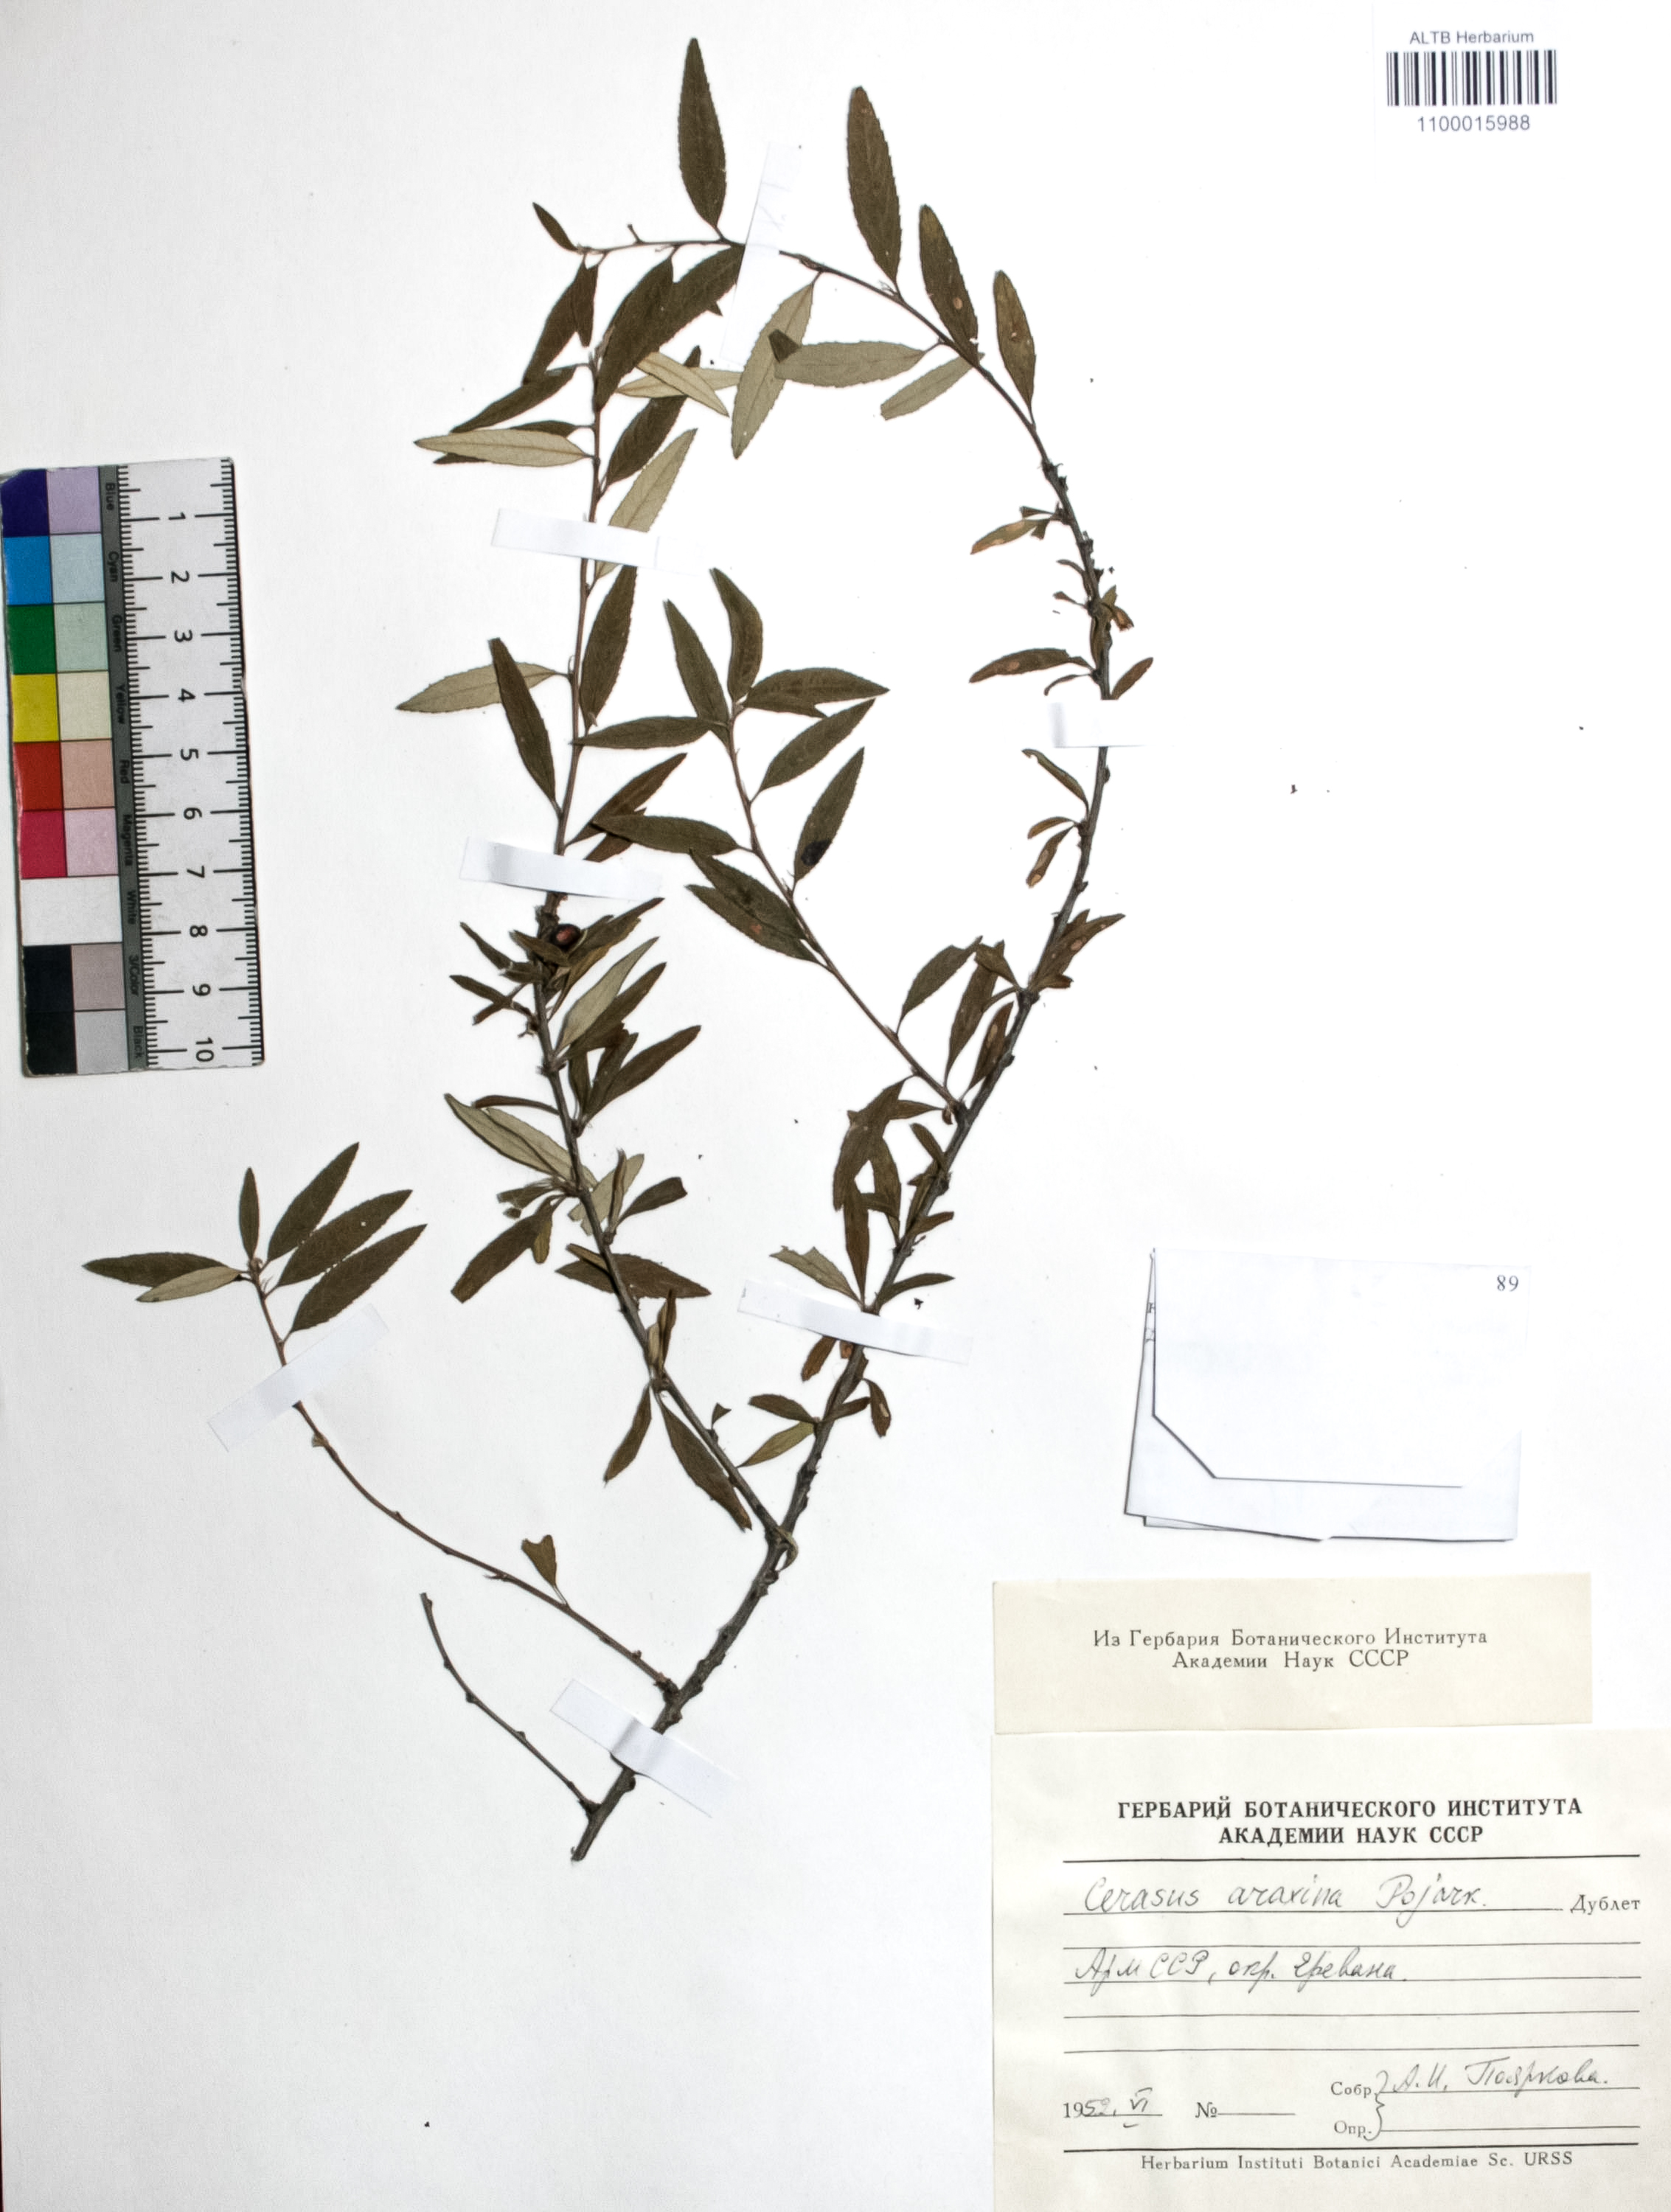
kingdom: Plantae
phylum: Tracheophyta
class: Magnoliopsida
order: Rosales
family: Rosaceae
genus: Prunus
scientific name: Prunus albicaulis
